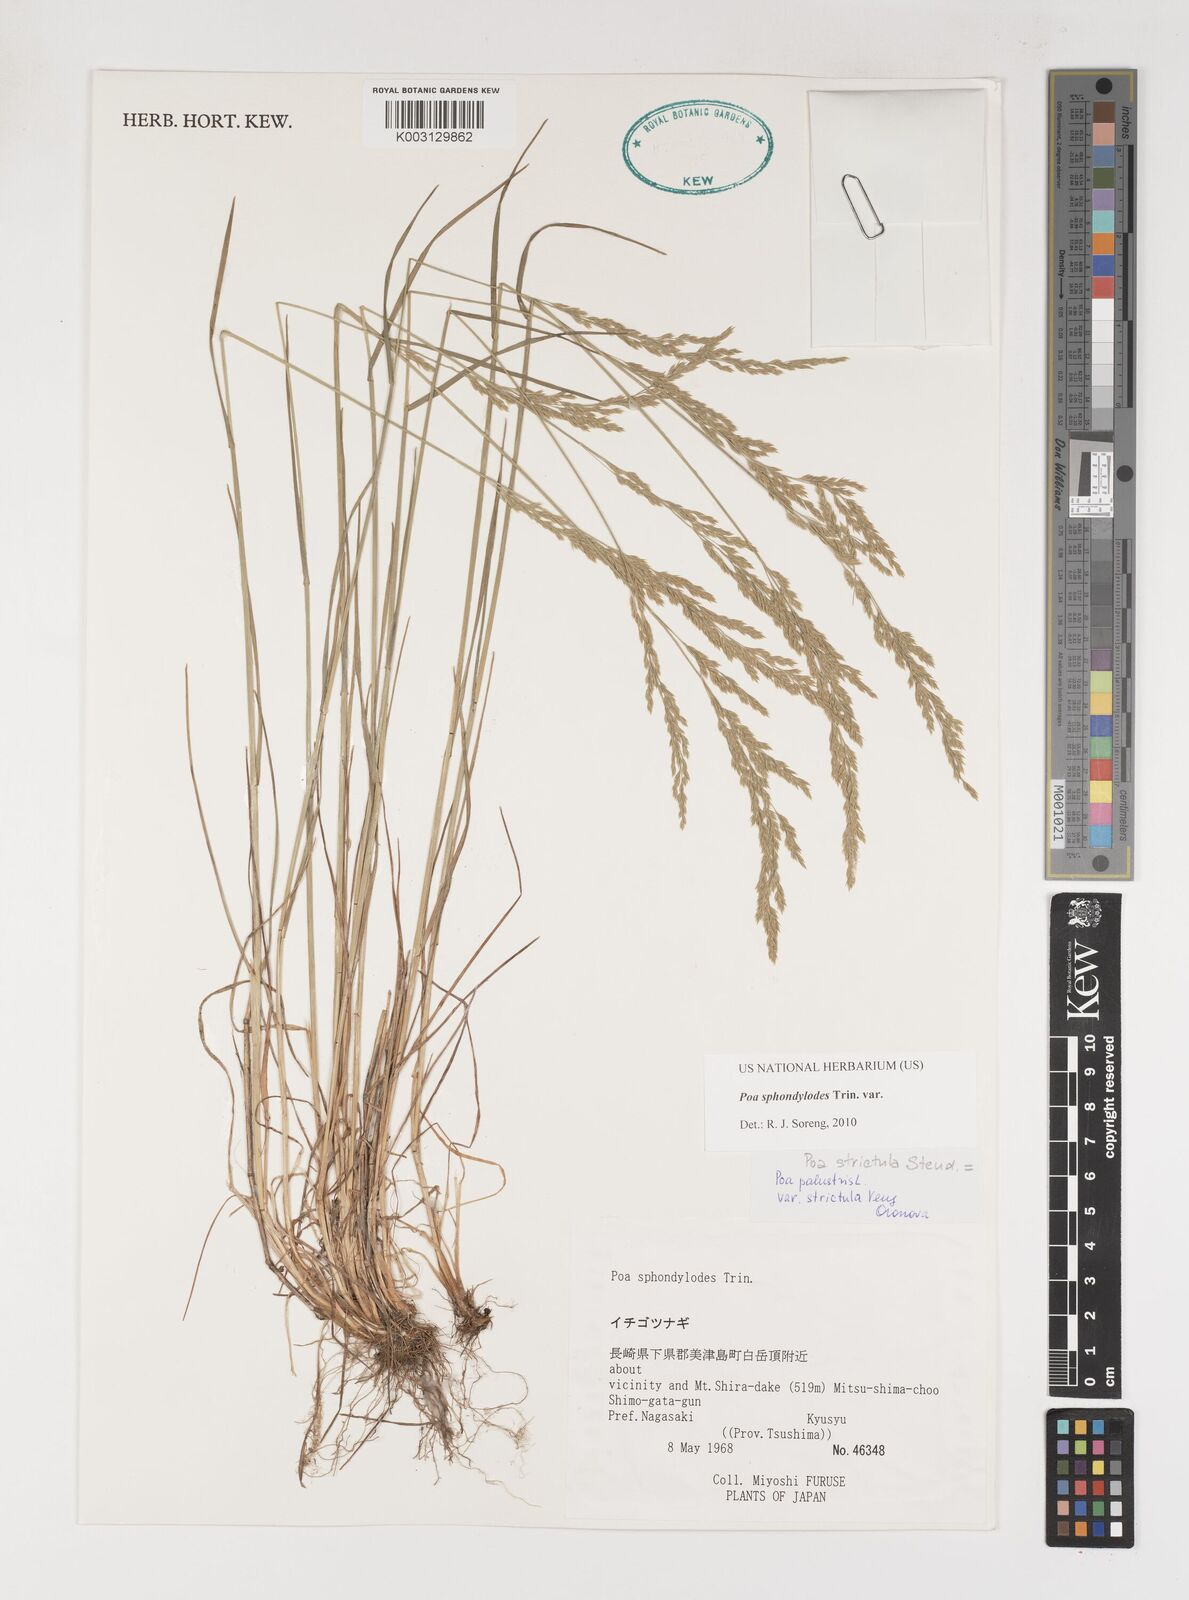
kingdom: Plantae
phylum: Tracheophyta
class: Liliopsida
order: Poales
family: Poaceae
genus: Poa
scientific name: Poa sphondylodes
